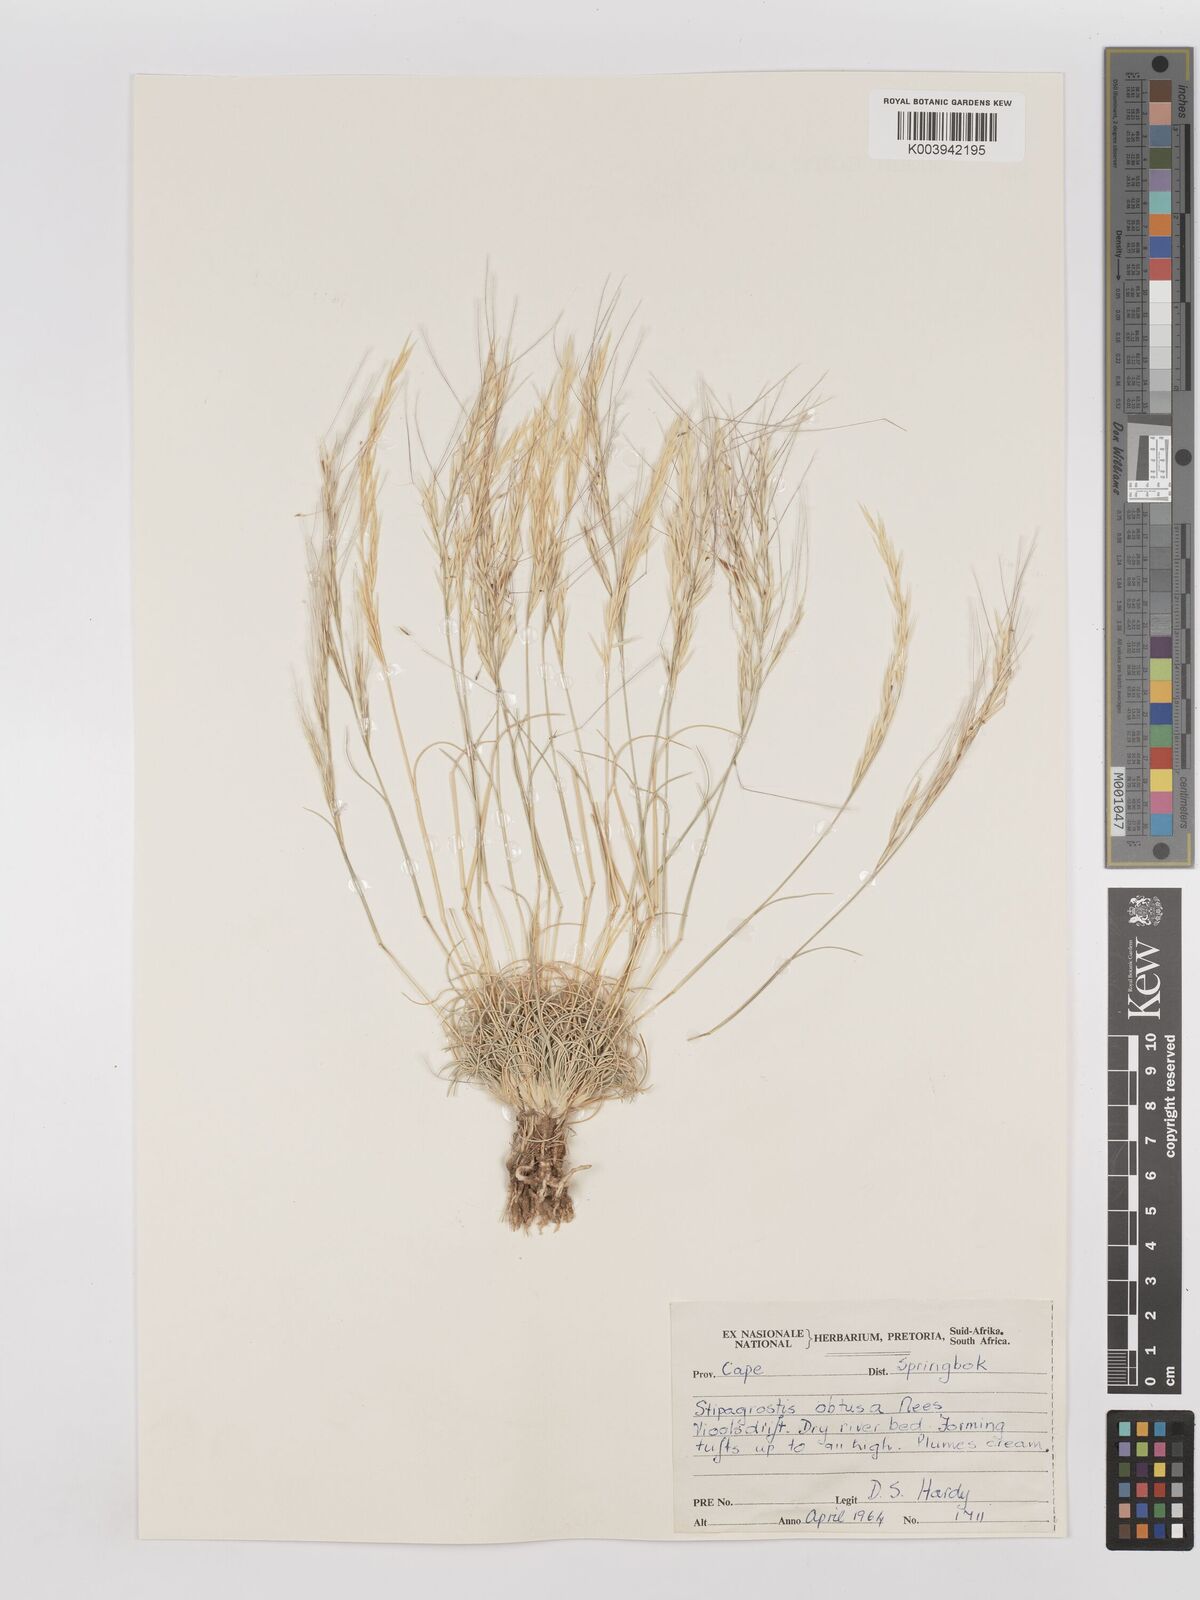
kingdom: Plantae
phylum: Tracheophyta
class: Liliopsida
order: Poales
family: Poaceae
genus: Stipagrostis
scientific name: Stipagrostis obtusa
